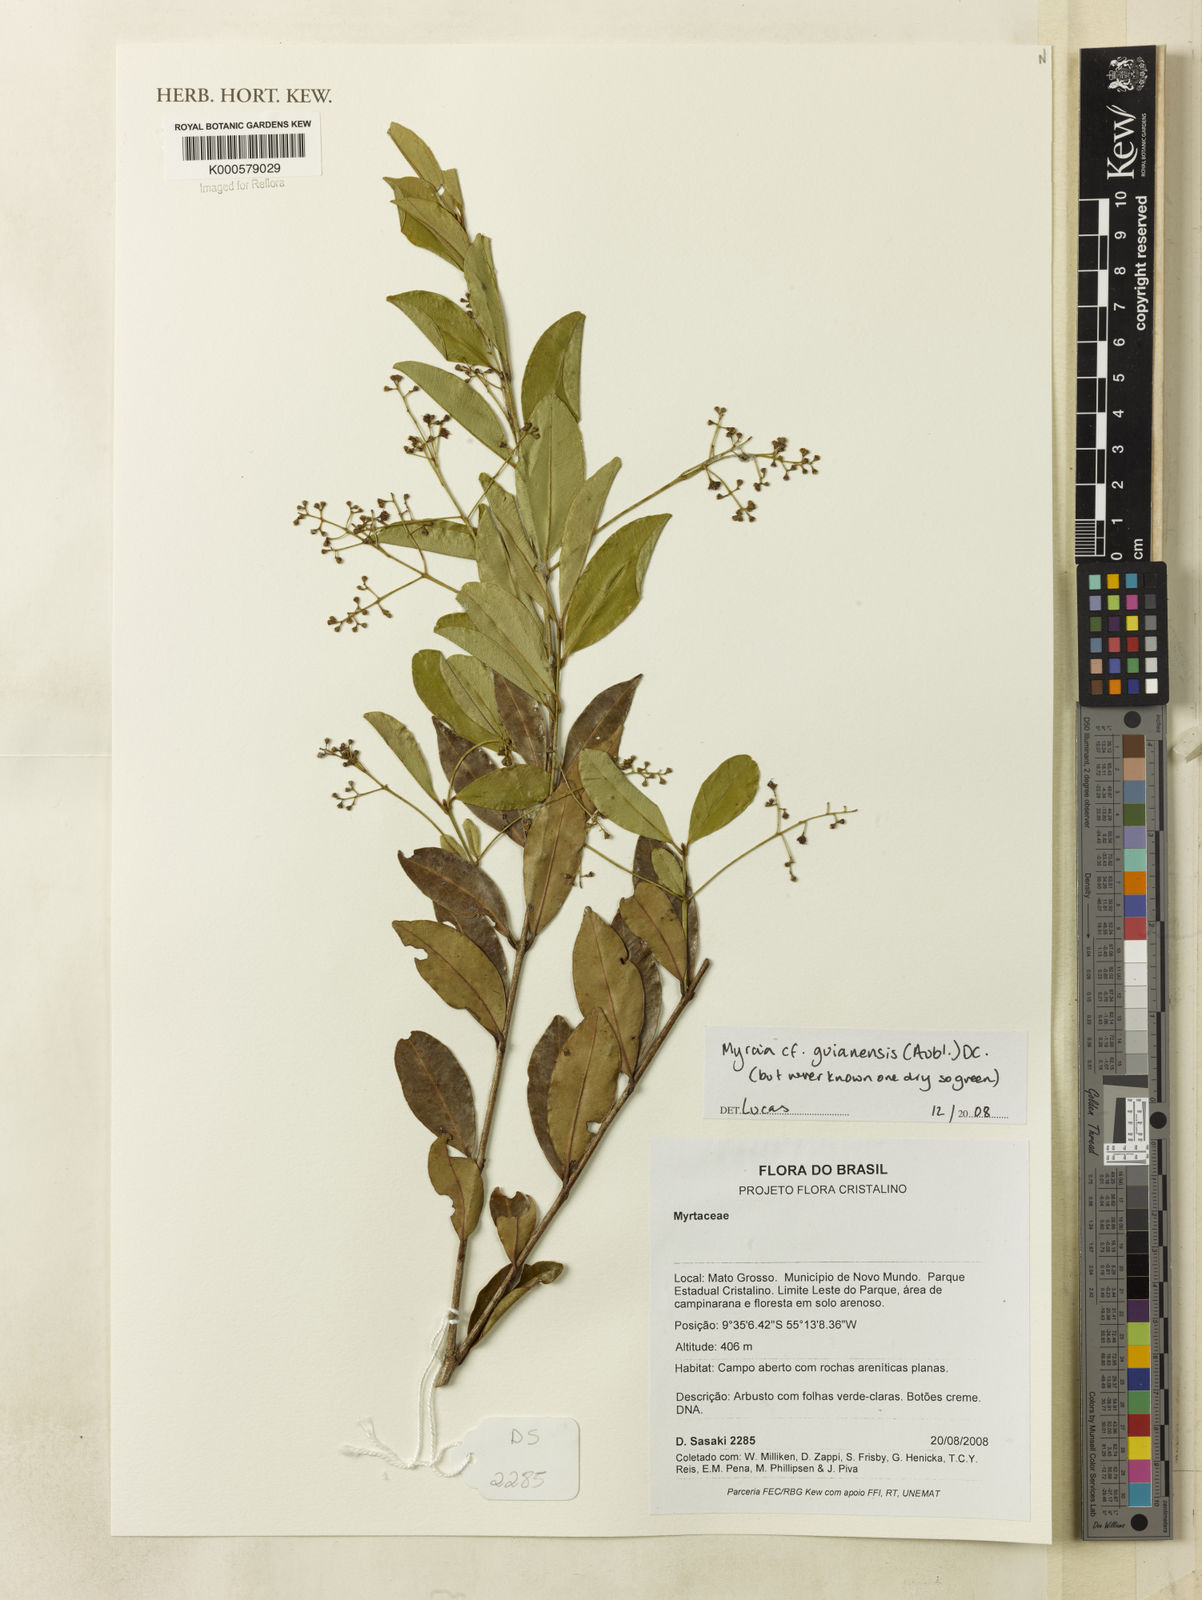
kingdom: Plantae
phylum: Tracheophyta
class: Magnoliopsida
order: Myrtales
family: Myrtaceae
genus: Myrcia
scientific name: Myrcia guianensis
